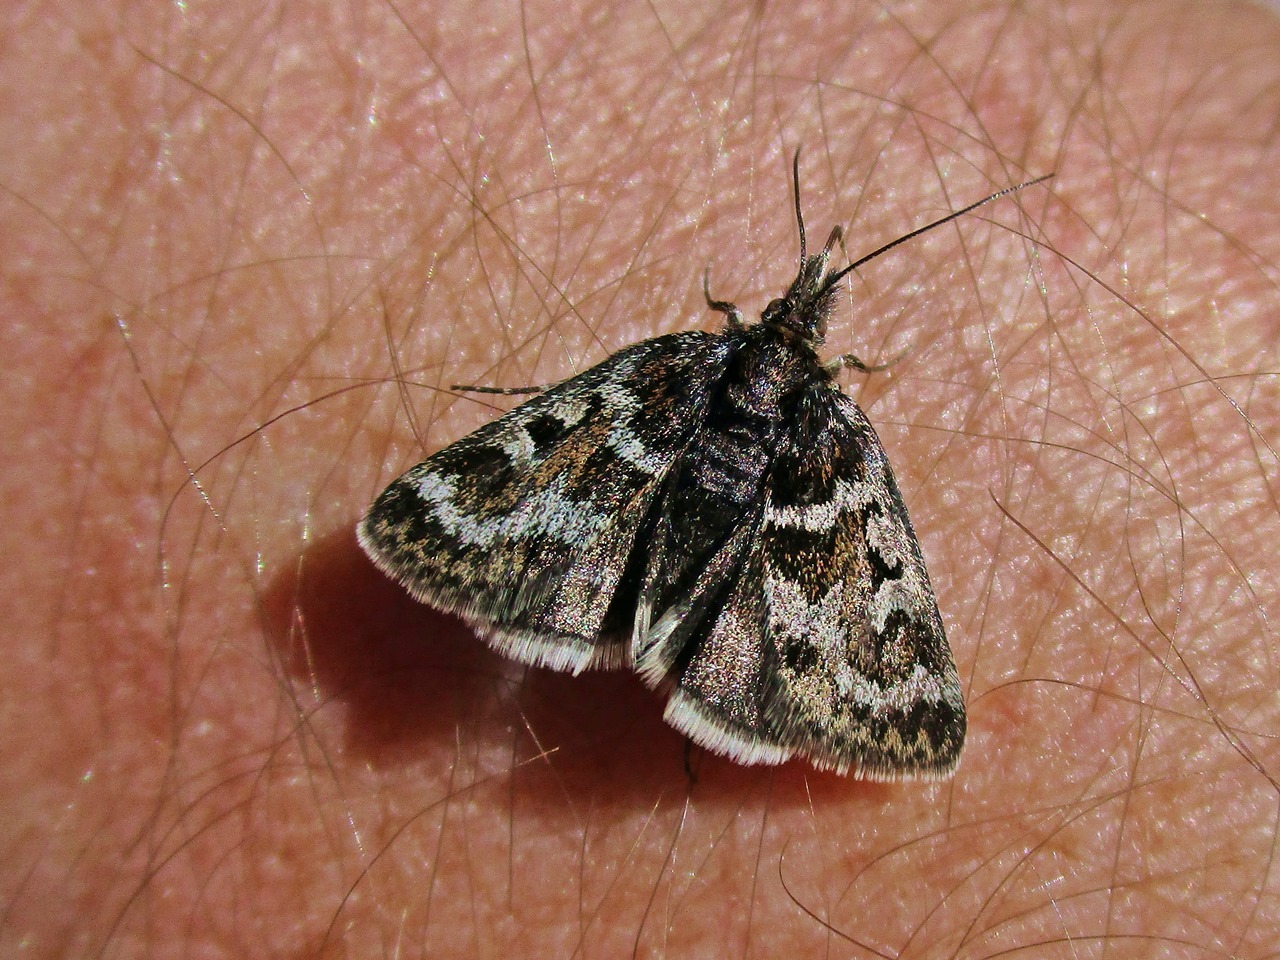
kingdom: Animalia
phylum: Arthropoda
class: Insecta
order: Lepidoptera
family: Crambidae
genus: Metaxmeste
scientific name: Metaxmeste schrankiana
